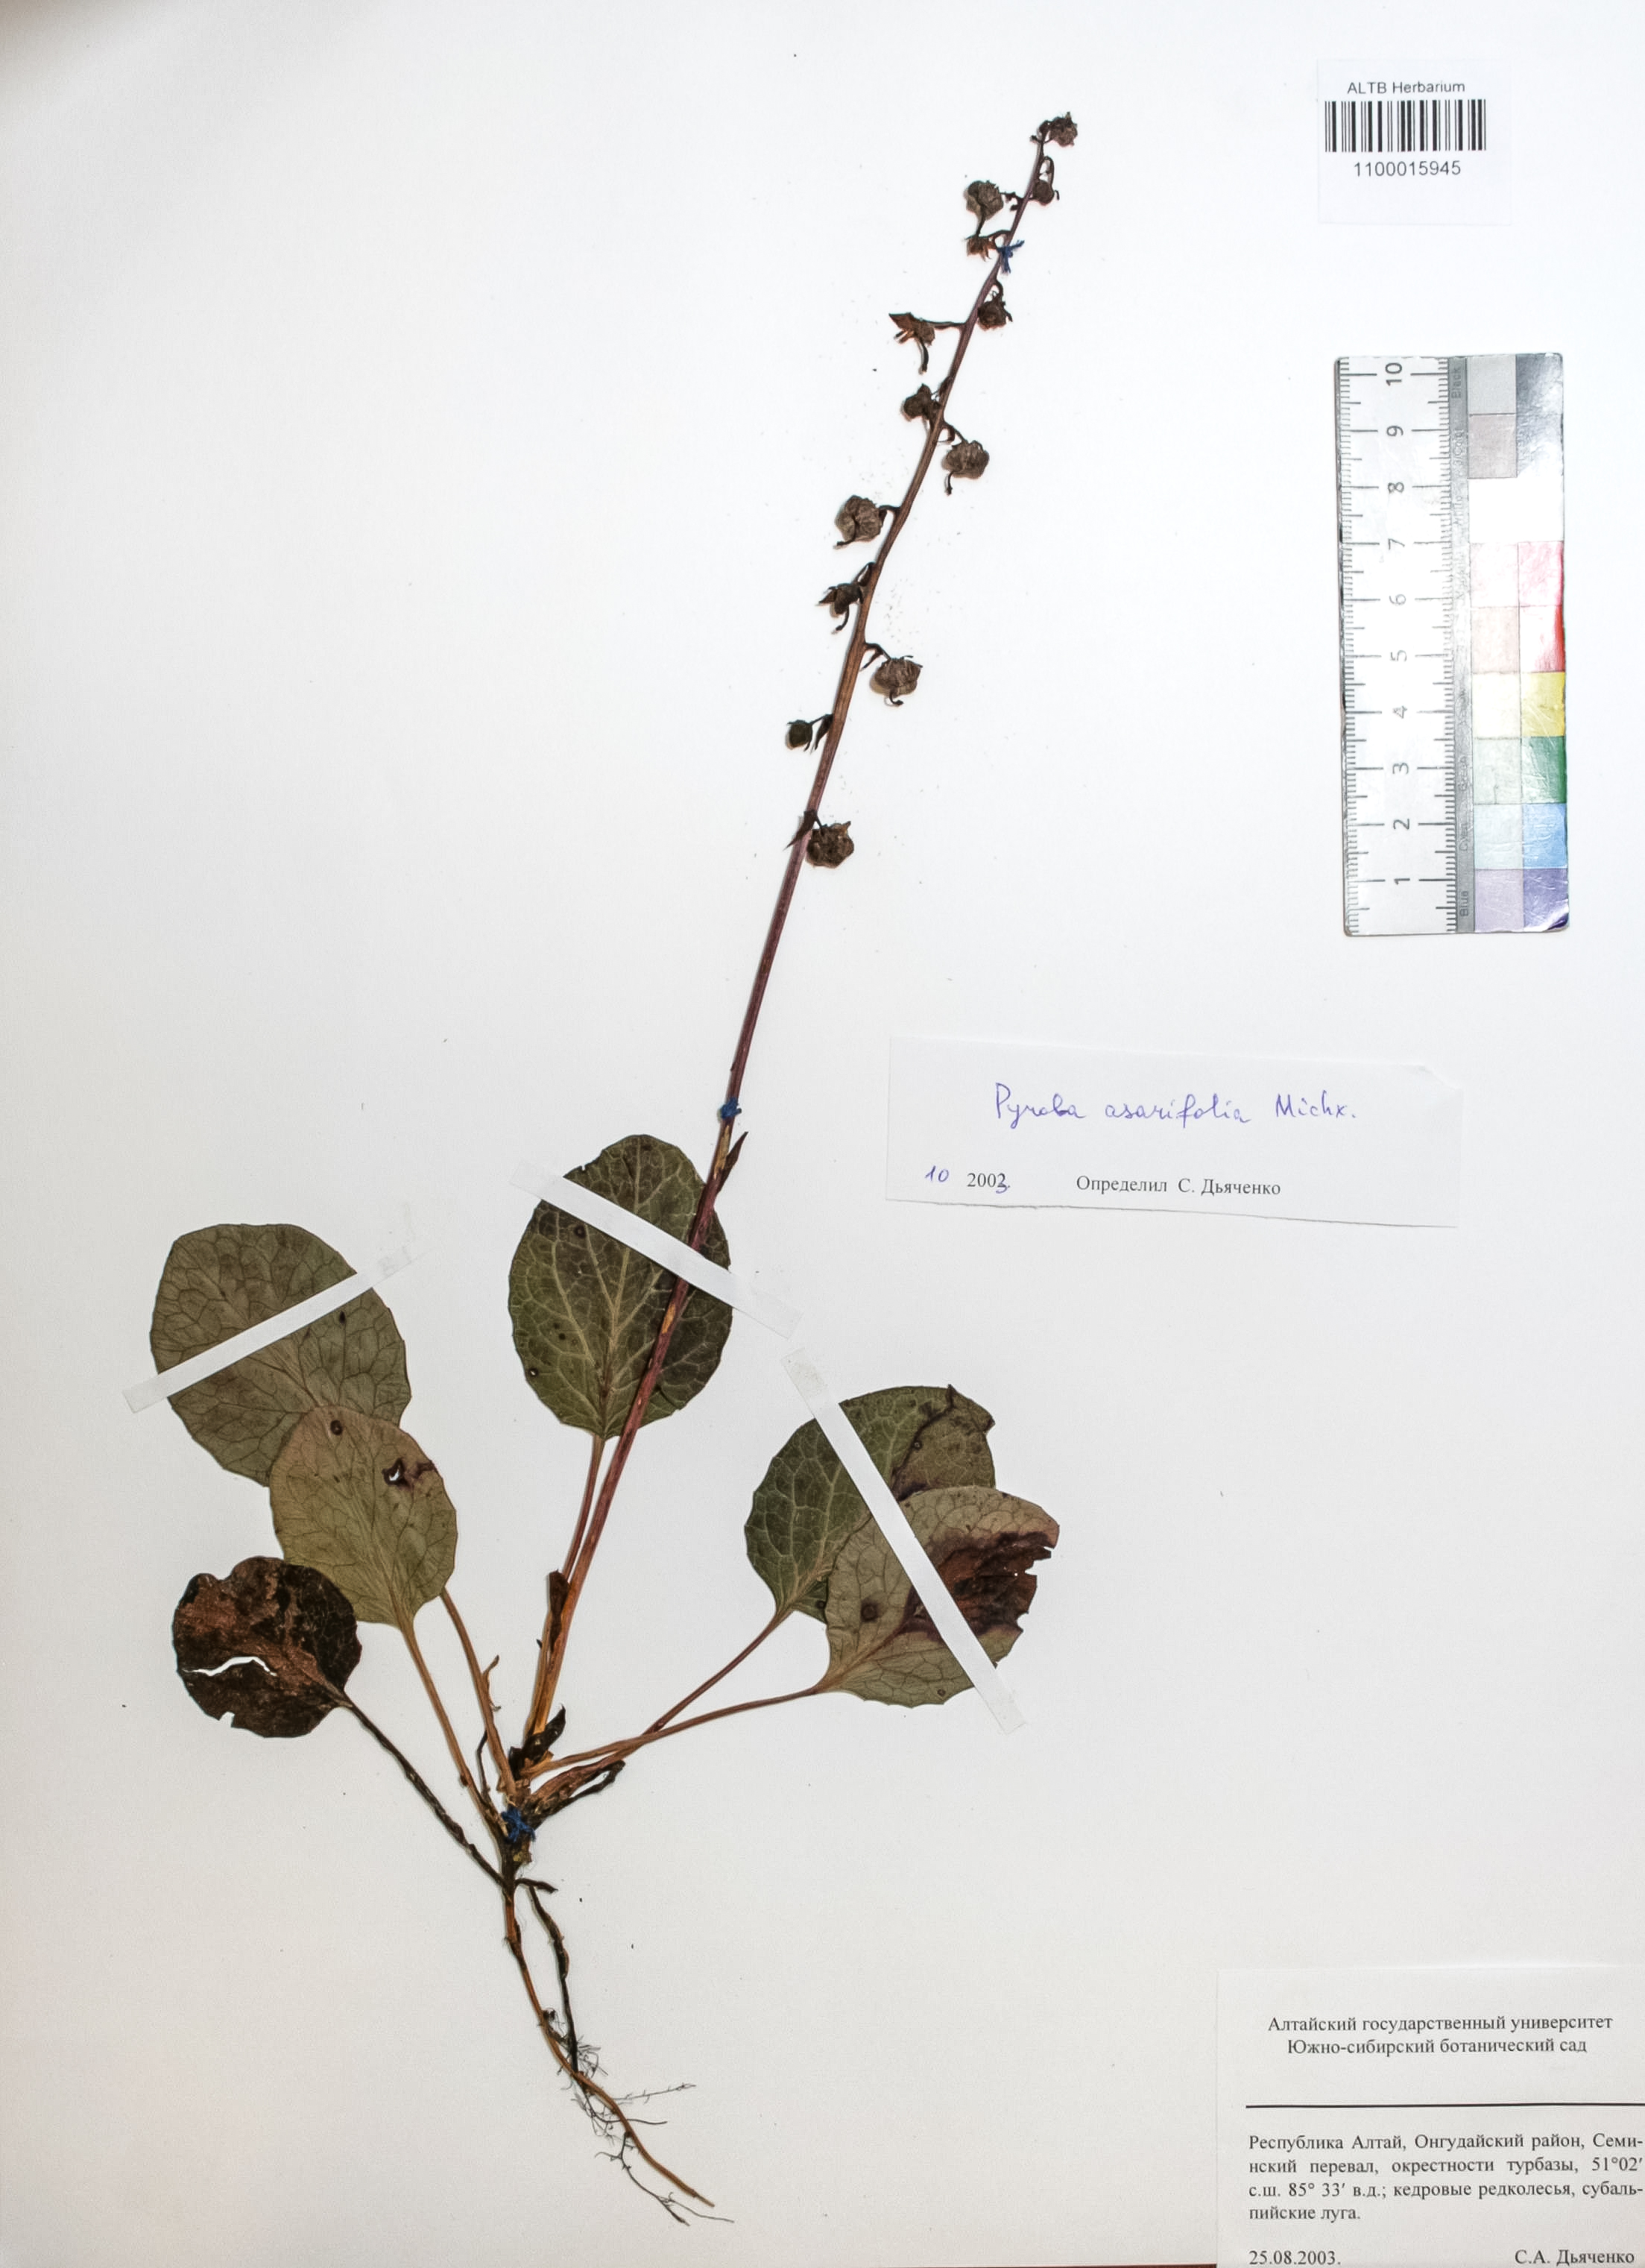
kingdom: Plantae
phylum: Tracheophyta
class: Magnoliopsida
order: Ericales
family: Ericaceae
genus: Pyrola
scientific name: Pyrola asarifolia
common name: Bog wintergreen
